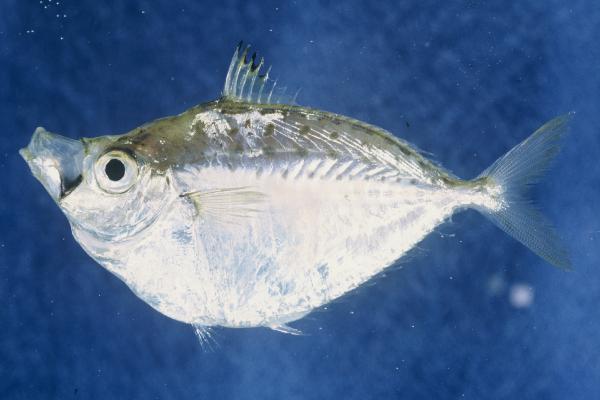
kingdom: Animalia
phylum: Chordata
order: Perciformes
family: Leiognathidae
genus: Secutor
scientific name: Secutor ruconius
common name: Deep pugnose ponyfish
